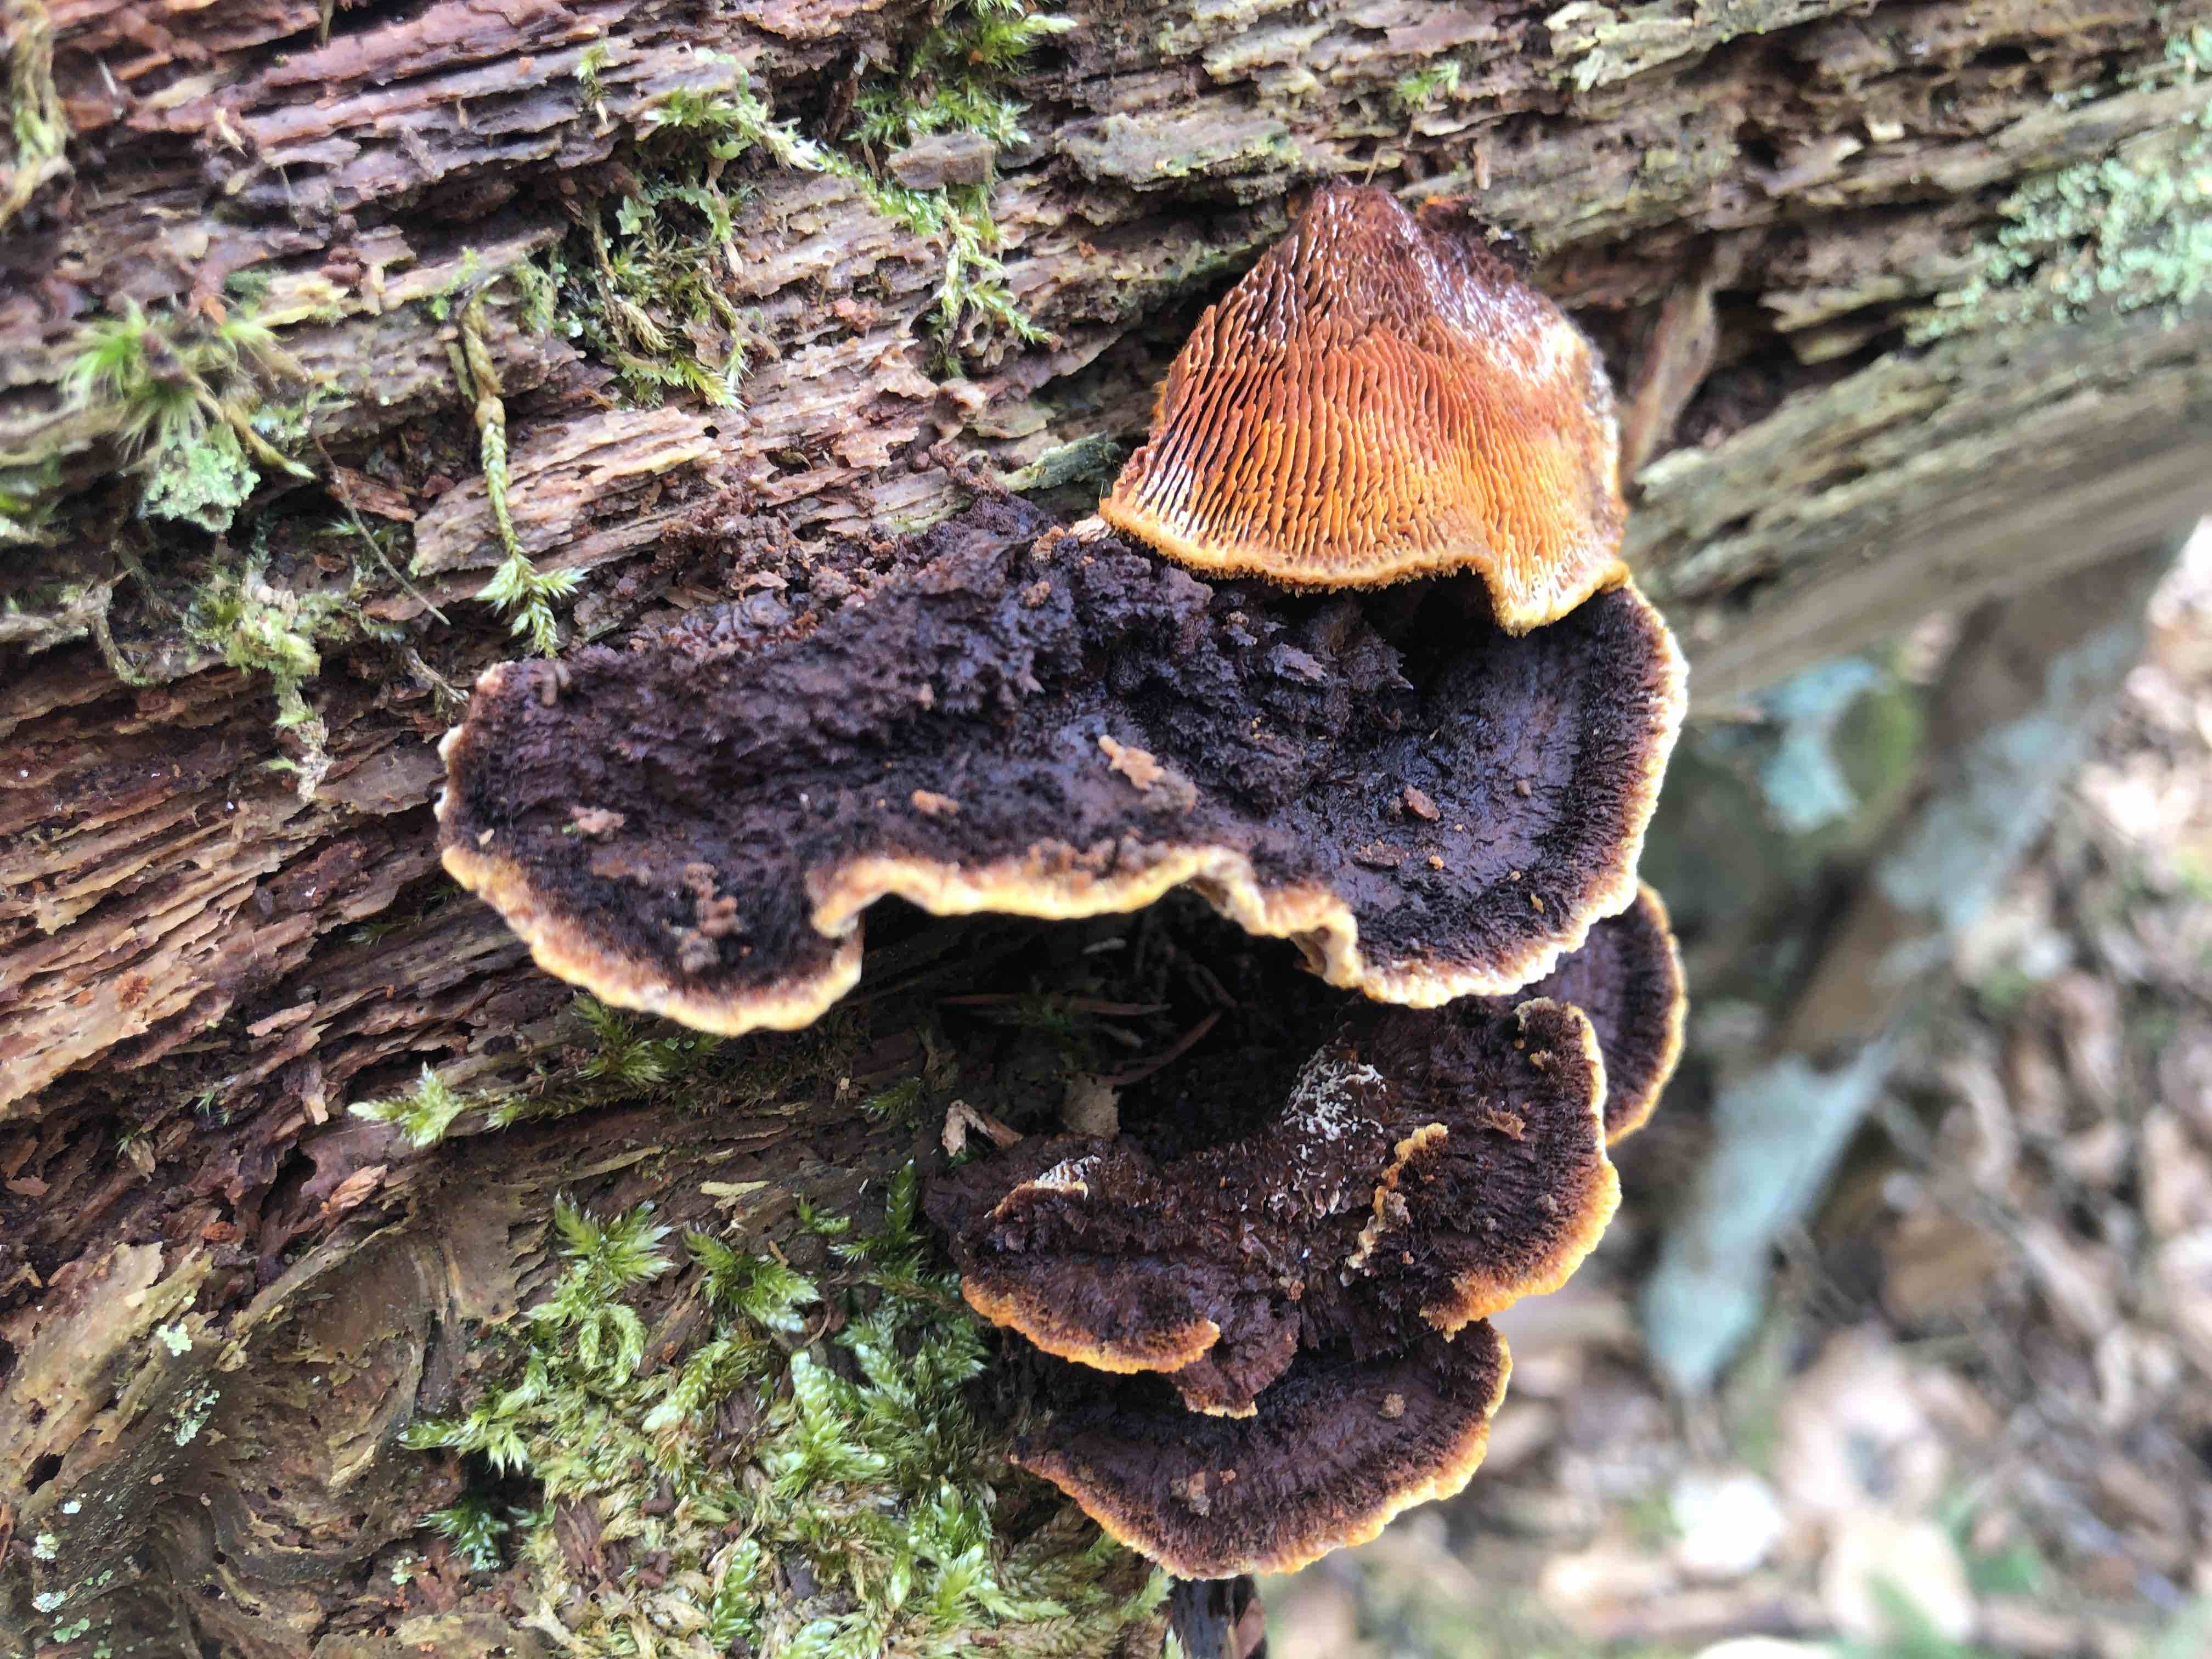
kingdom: Fungi
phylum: Basidiomycota
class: Agaricomycetes
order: Gloeophyllales
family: Gloeophyllaceae
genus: Gloeophyllum
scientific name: Gloeophyllum sepiarium
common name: fyrre-korkhat
